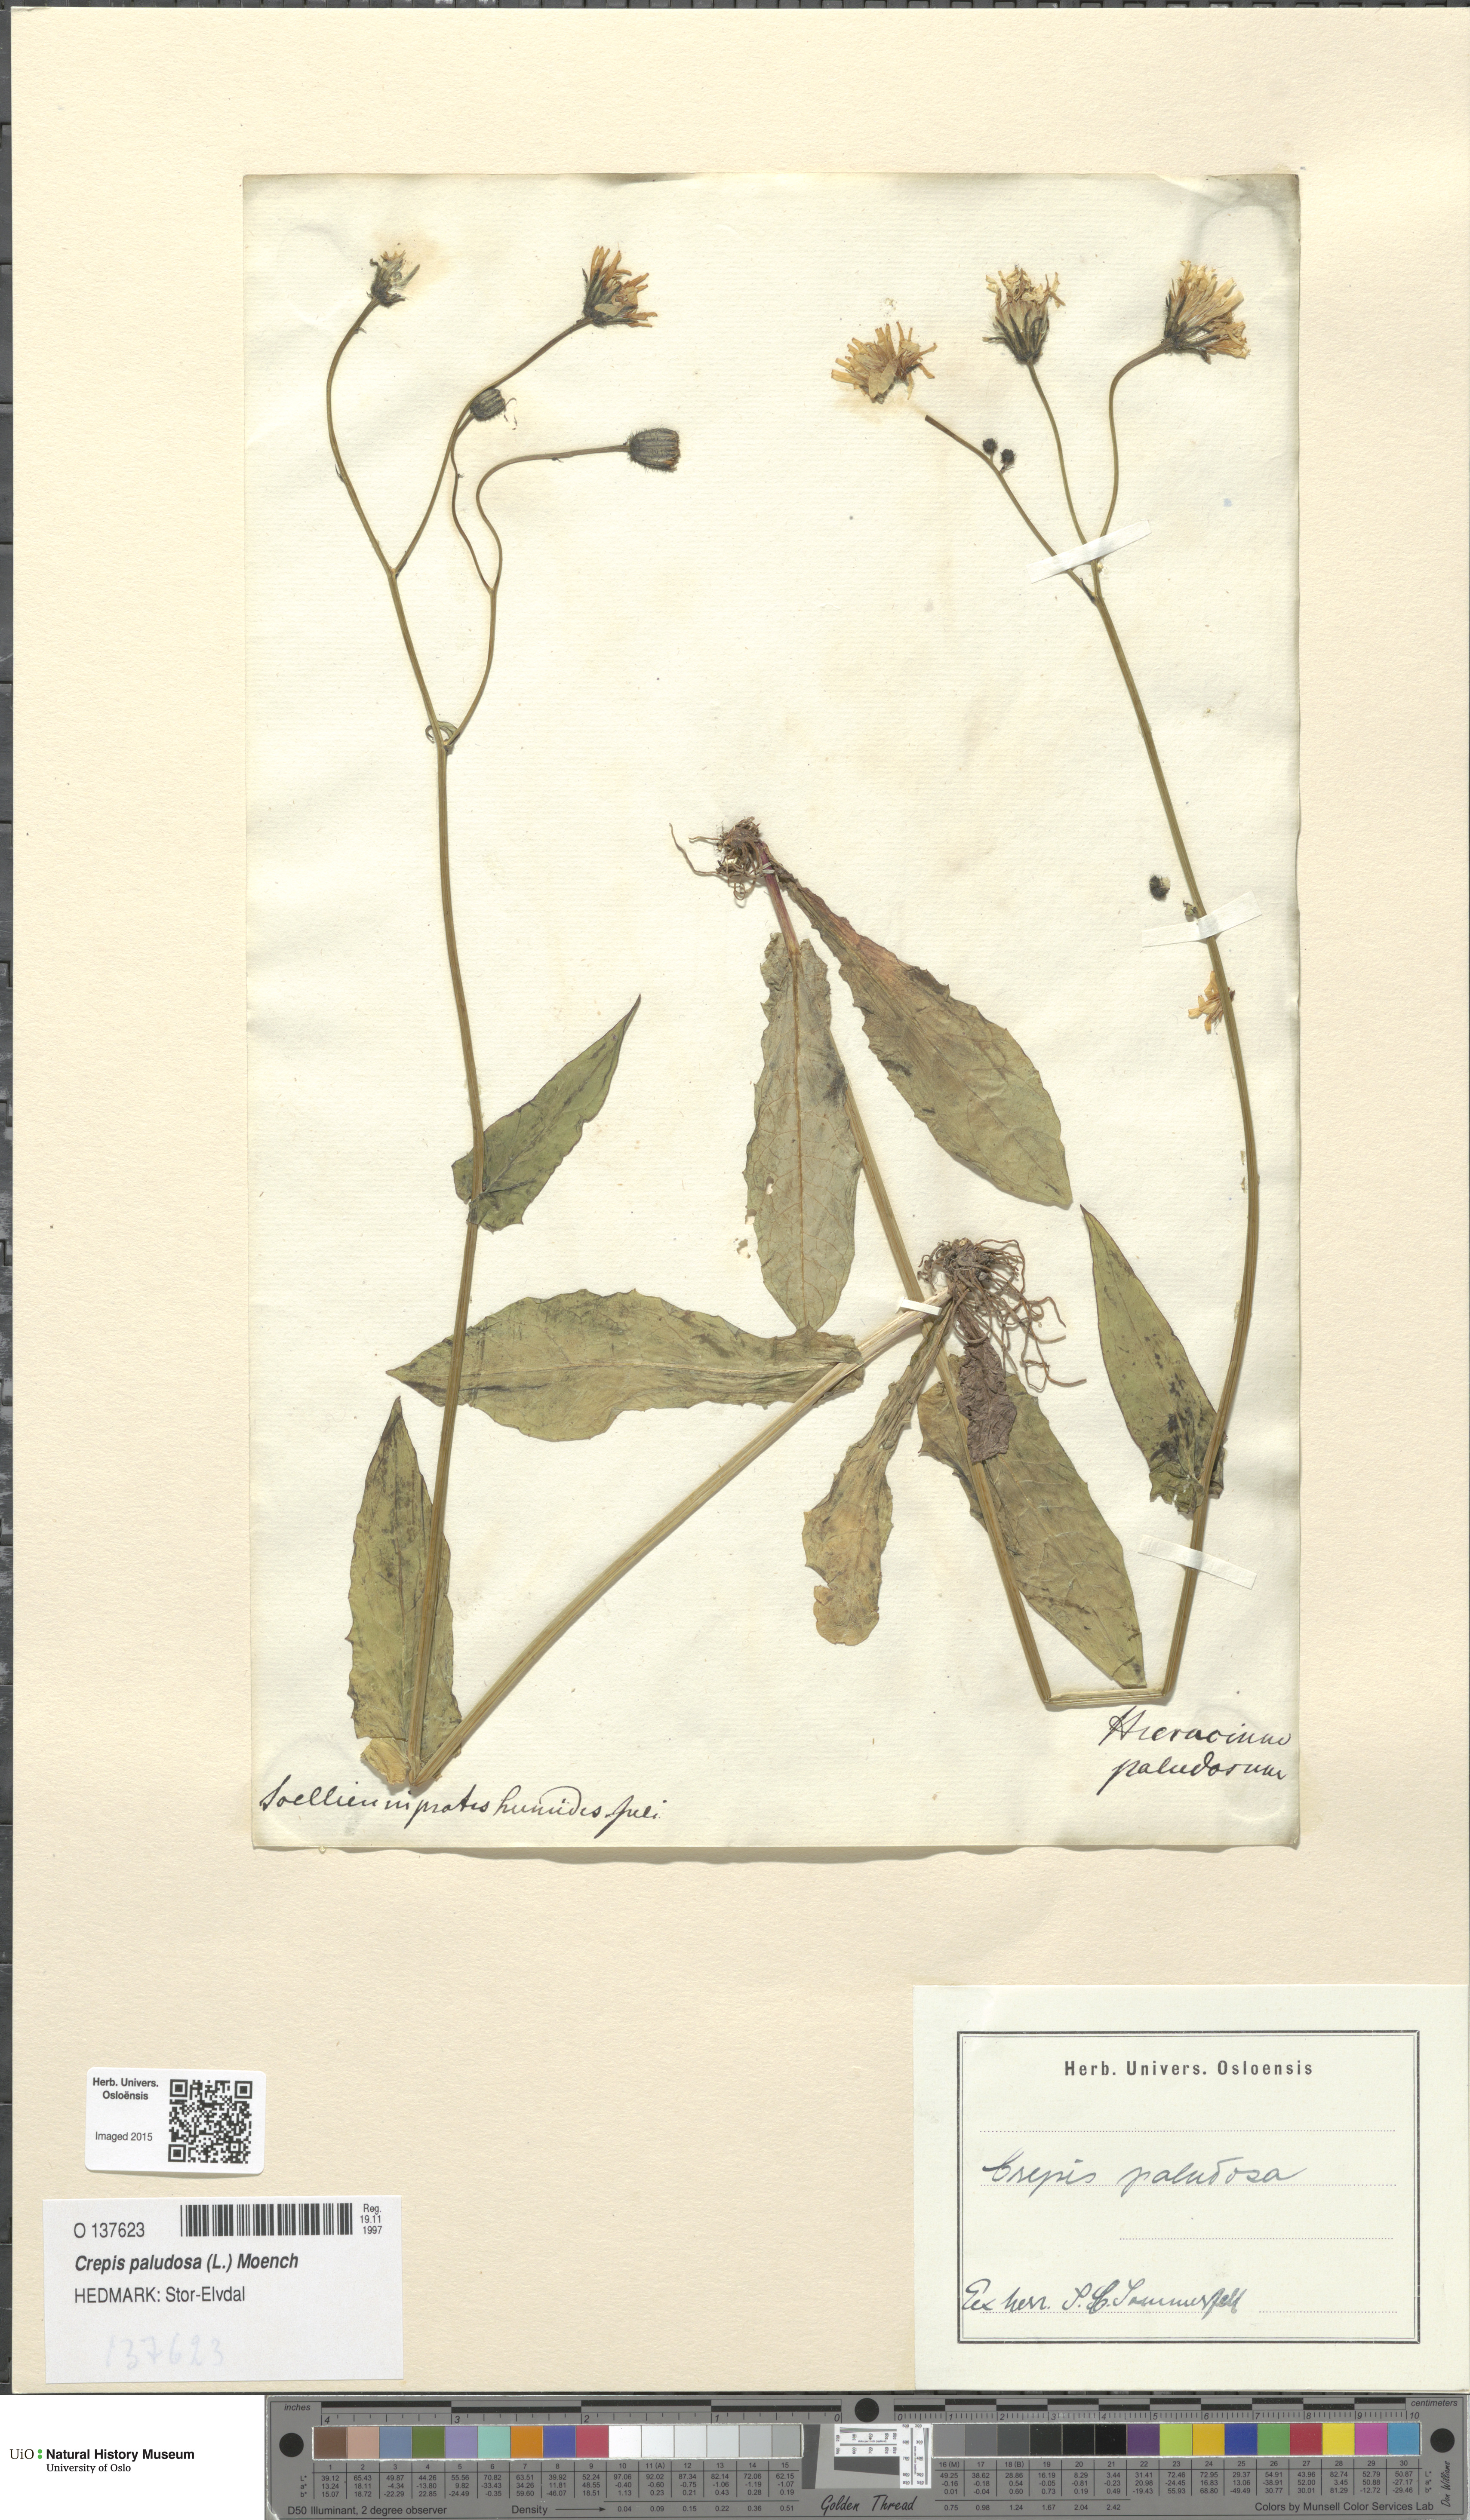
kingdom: Plantae
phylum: Tracheophyta
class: Magnoliopsida
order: Asterales
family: Asteraceae
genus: Crepis
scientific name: Crepis paludosa
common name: Marsh hawk's-beard
